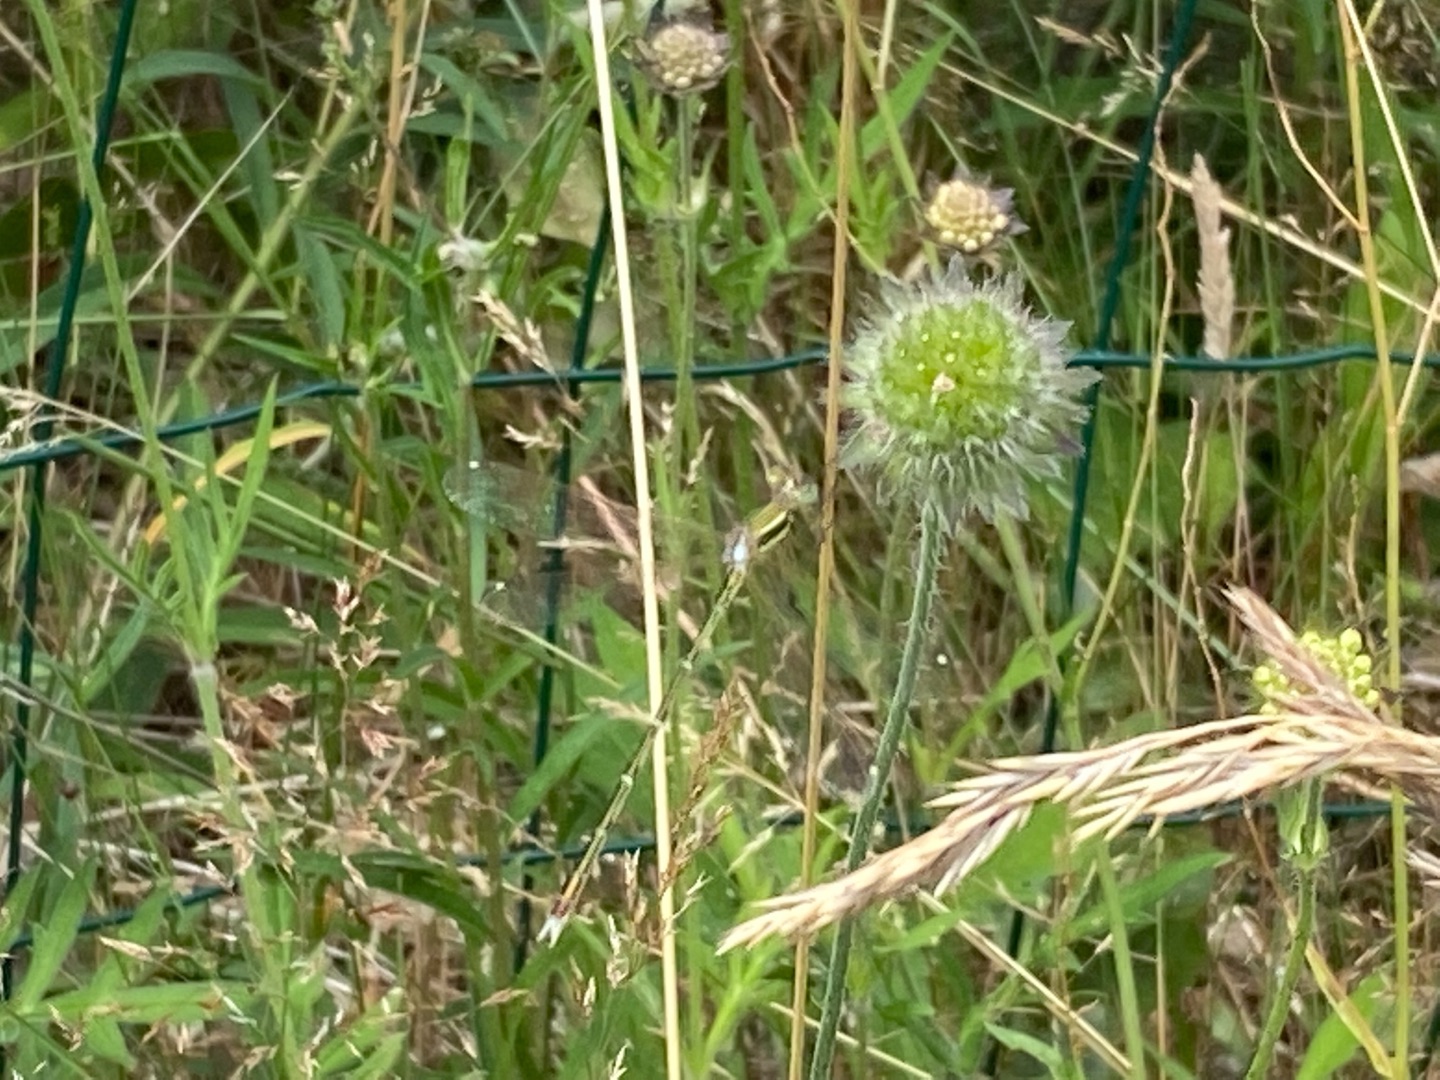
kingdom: Animalia
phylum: Arthropoda
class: Insecta
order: Odonata
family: Lestidae
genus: Lestes
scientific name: Lestes barbarus
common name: Sydlig kobbervandnymfe
